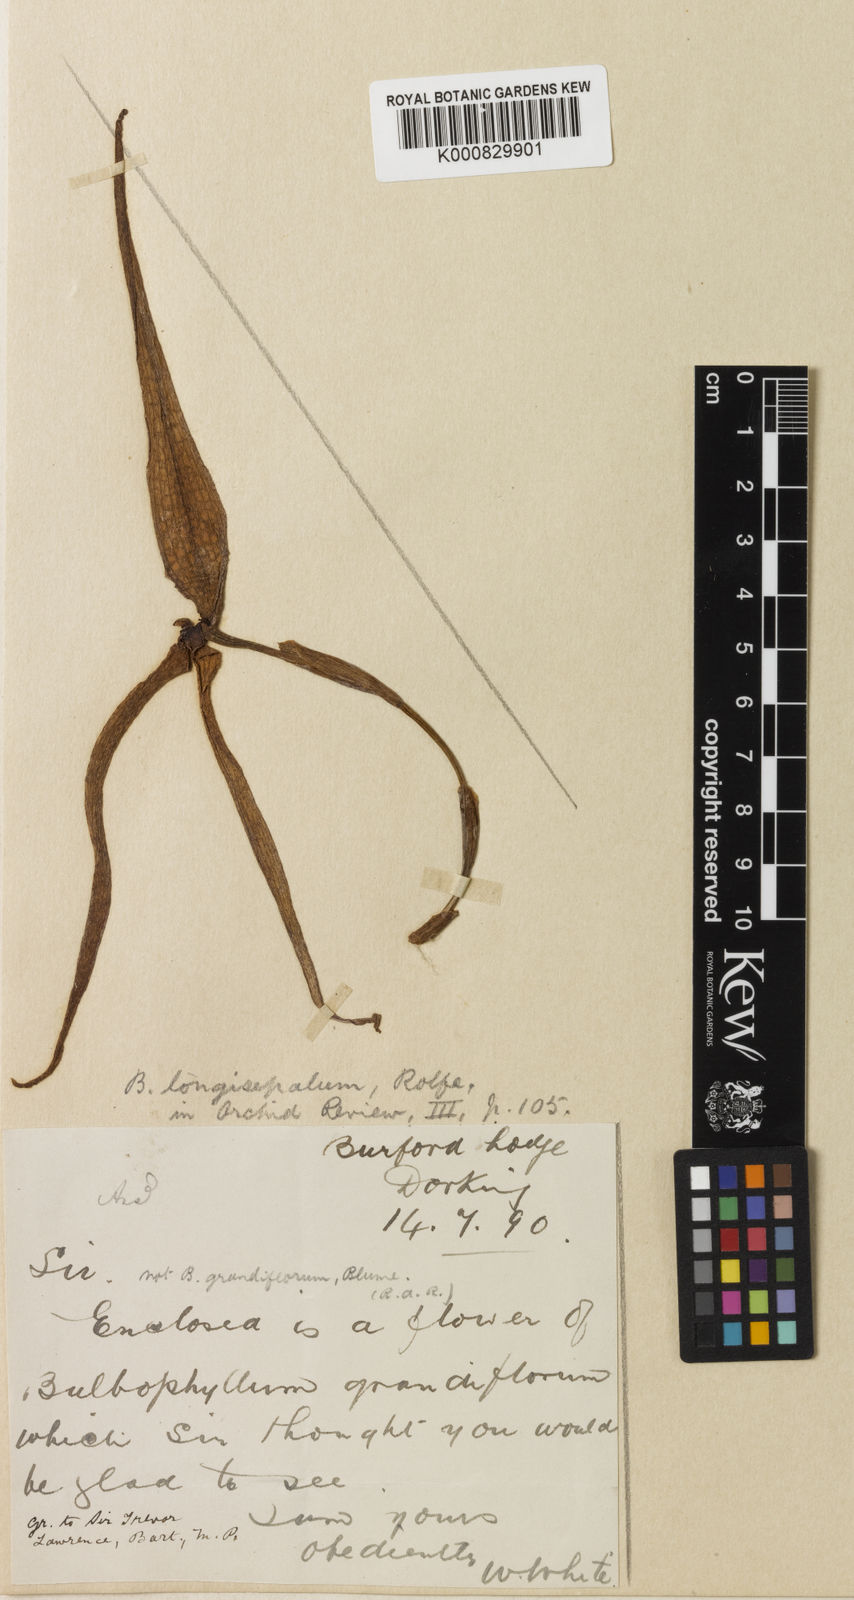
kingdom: Plantae
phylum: Tracheophyta
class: Liliopsida
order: Asparagales
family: Orchidaceae
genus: Bulbophyllum
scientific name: Bulbophyllum longisepalum
